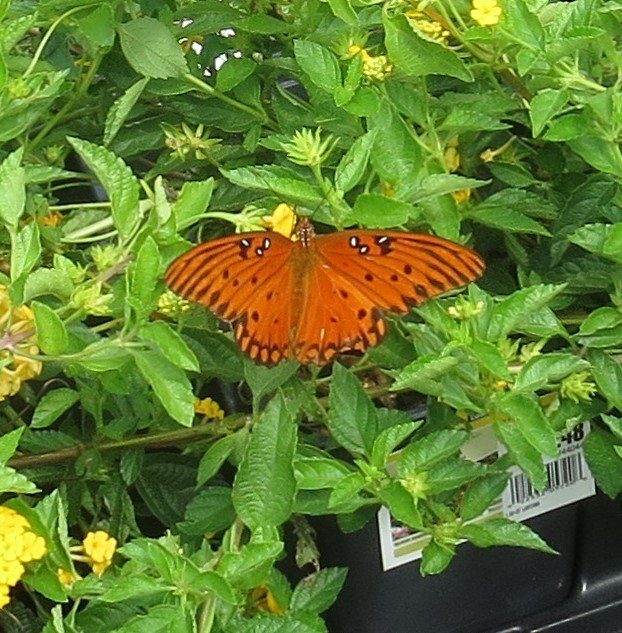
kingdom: Animalia
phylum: Arthropoda
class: Insecta
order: Lepidoptera
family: Nymphalidae
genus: Dione
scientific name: Dione vanillae
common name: Gulf Fritillary
